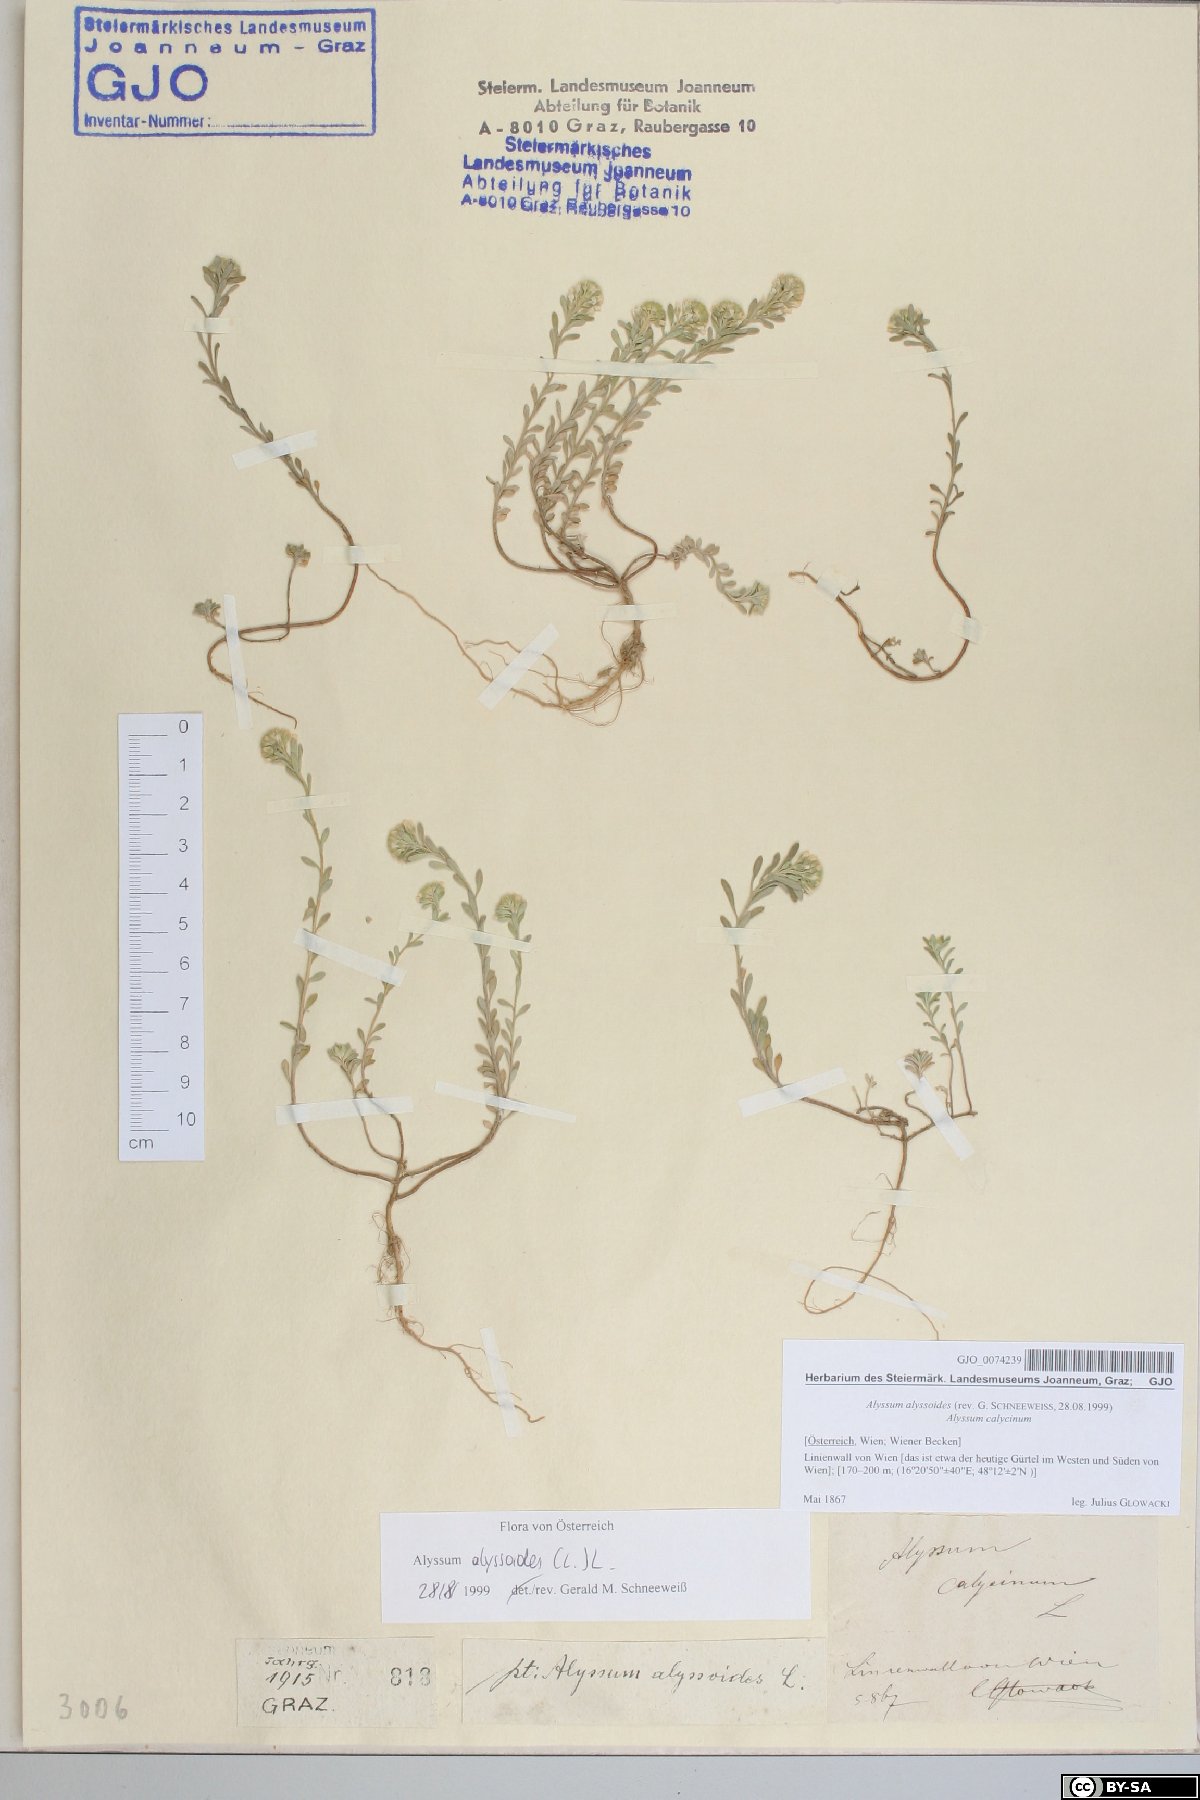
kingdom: Plantae
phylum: Tracheophyta
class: Magnoliopsida
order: Brassicales
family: Brassicaceae
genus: Alyssum
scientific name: Alyssum alyssoides
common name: Small alison
